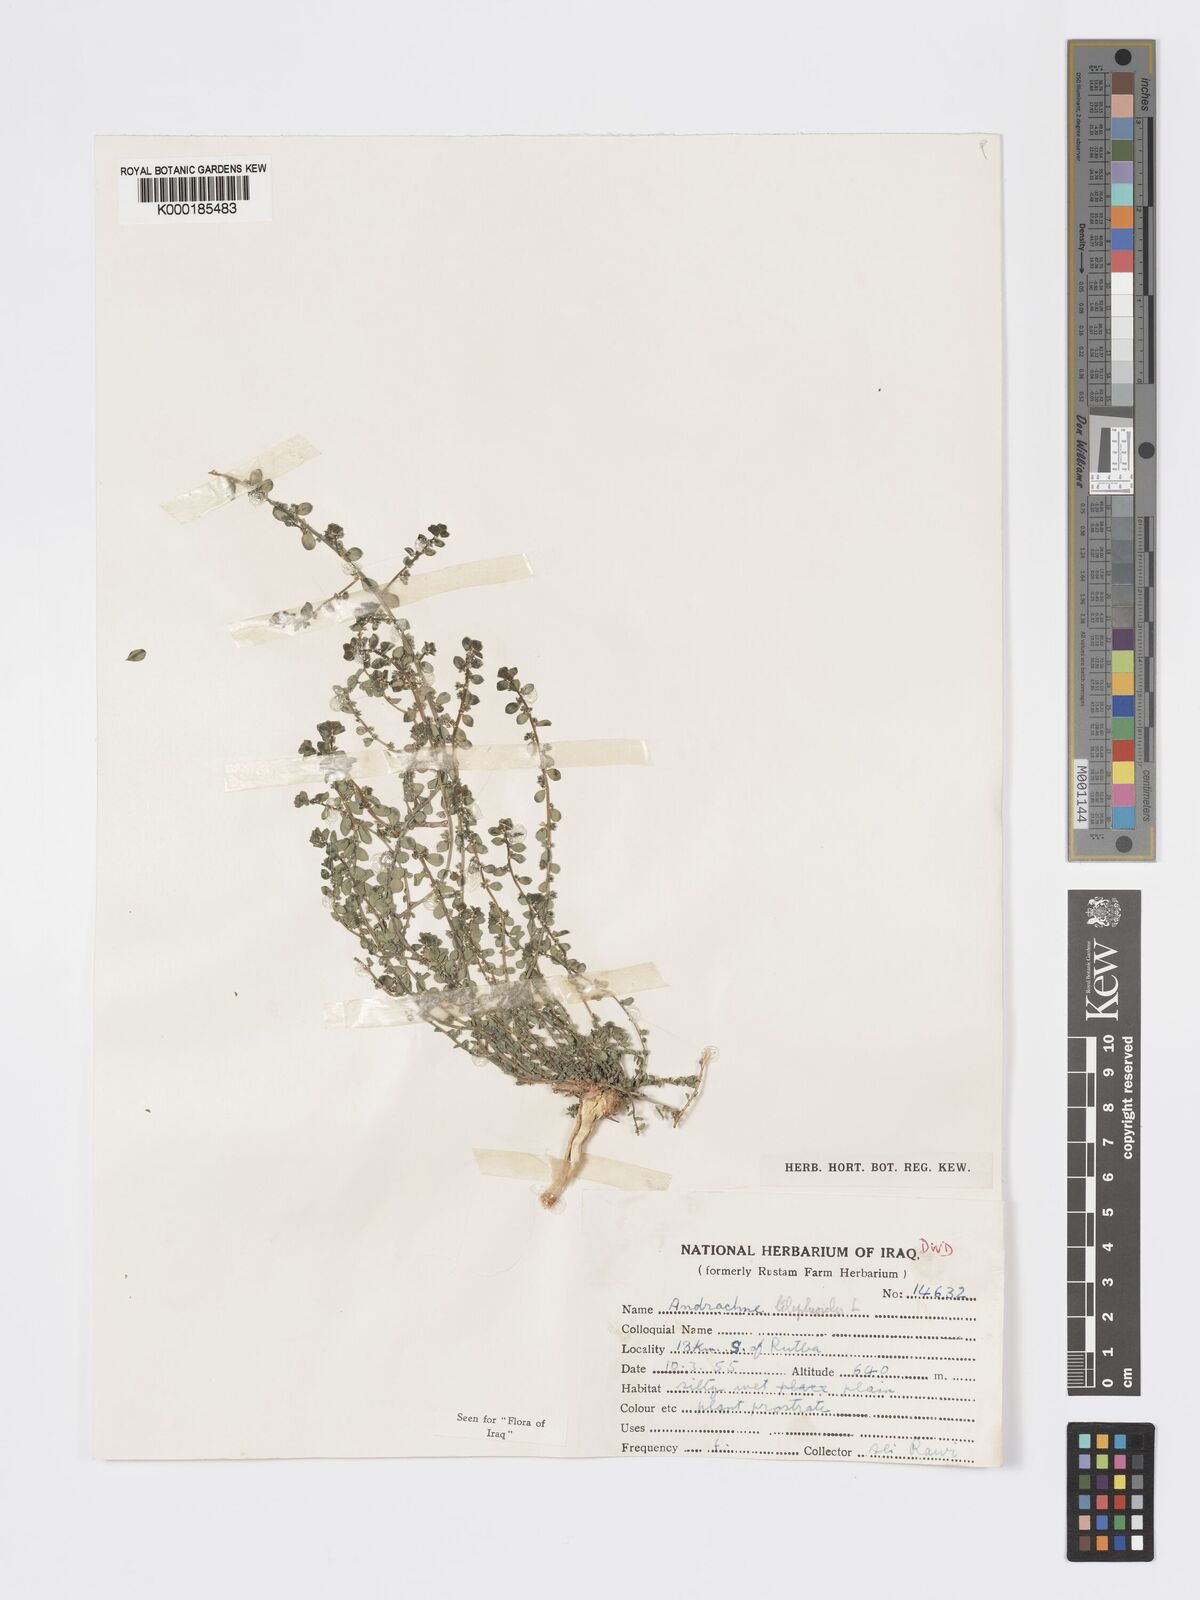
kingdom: Plantae
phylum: Tracheophyta
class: Magnoliopsida
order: Malpighiales
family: Phyllanthaceae
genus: Andrachne
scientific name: Andrachne telephioides
